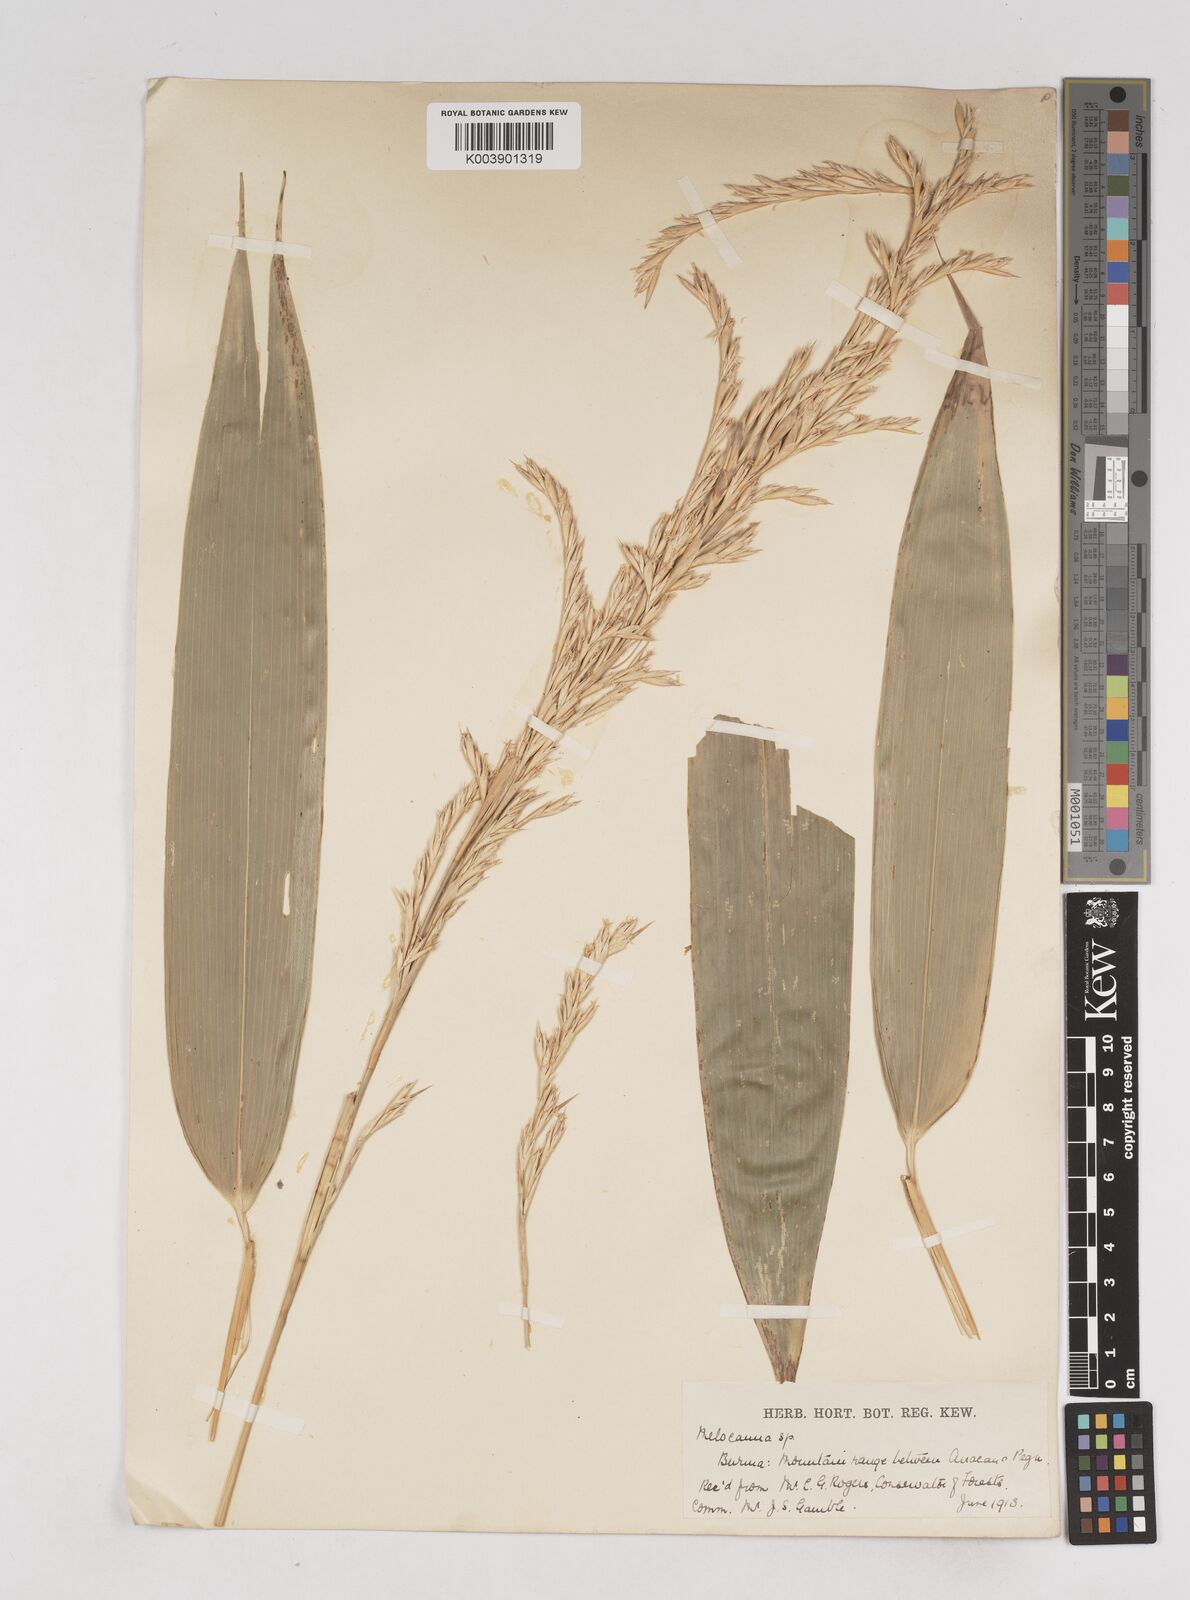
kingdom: Plantae
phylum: Tracheophyta
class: Liliopsida
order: Poales
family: Poaceae
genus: Melocanna
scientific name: Melocanna
